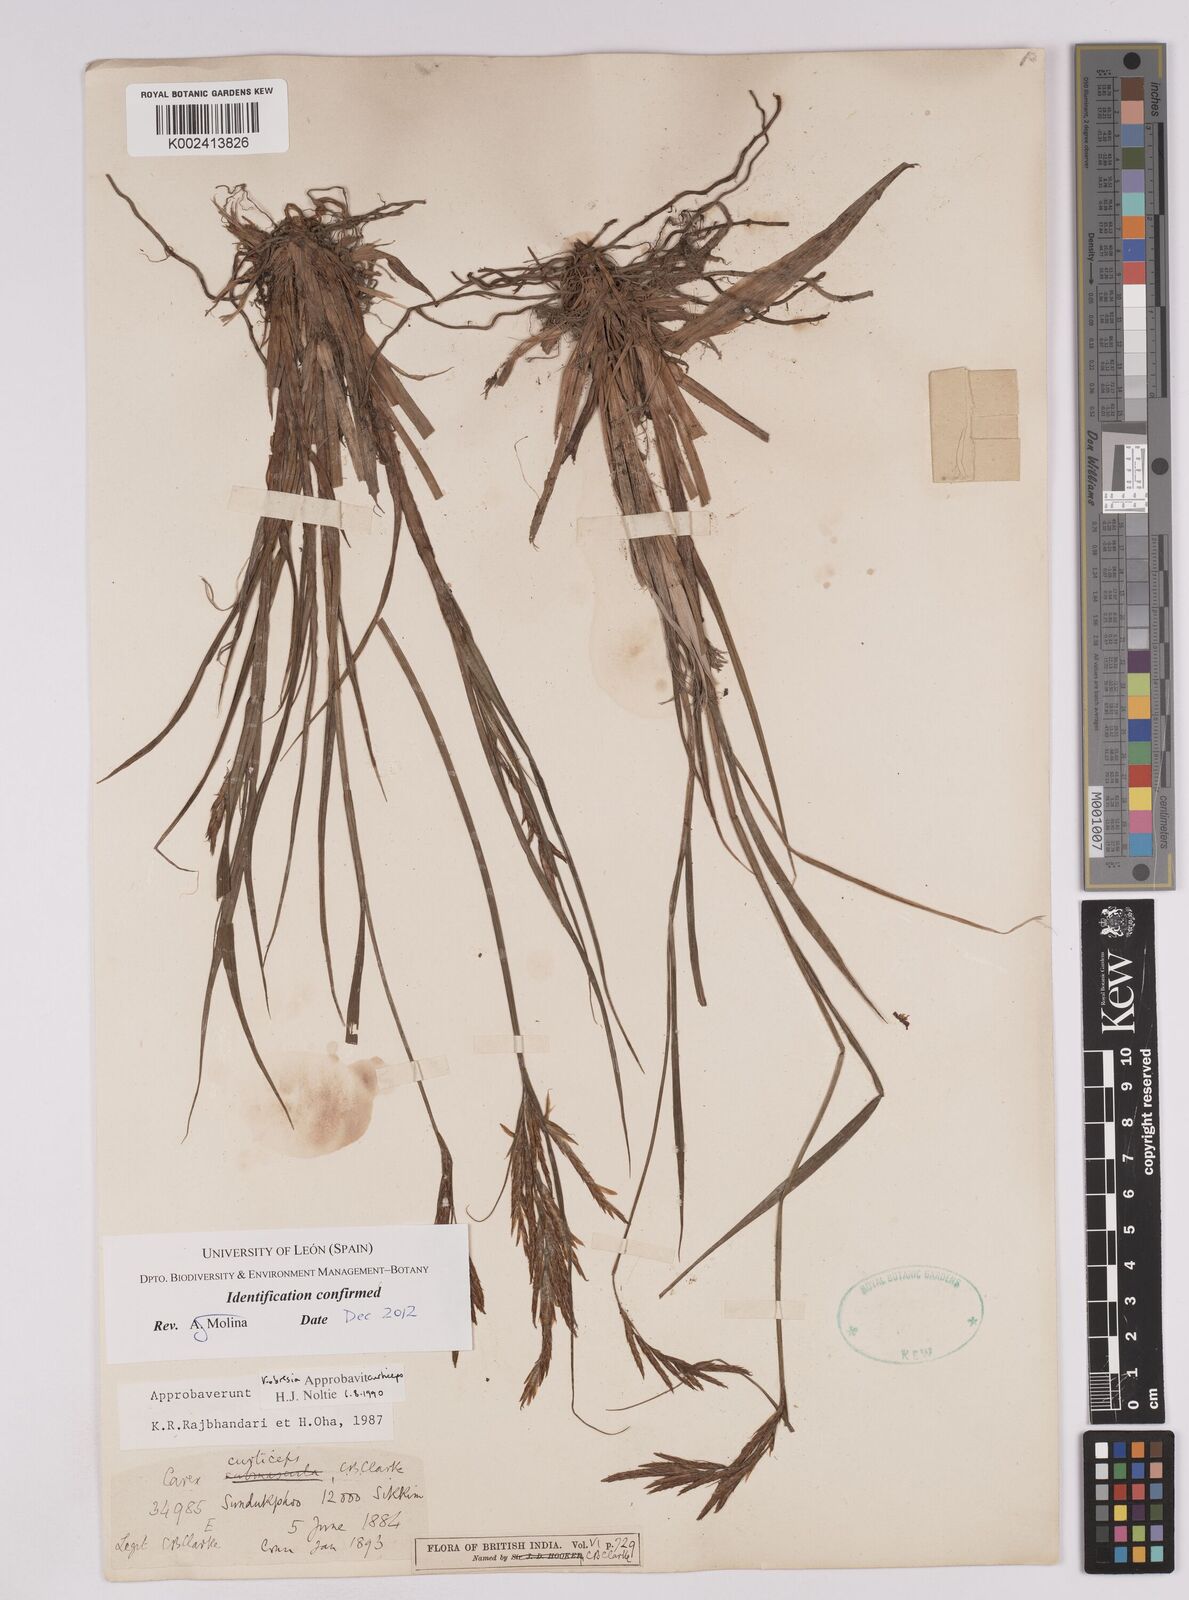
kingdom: Plantae
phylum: Tracheophyta
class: Liliopsida
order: Poales
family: Cyperaceae
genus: Carex
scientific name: Carex curticeps
